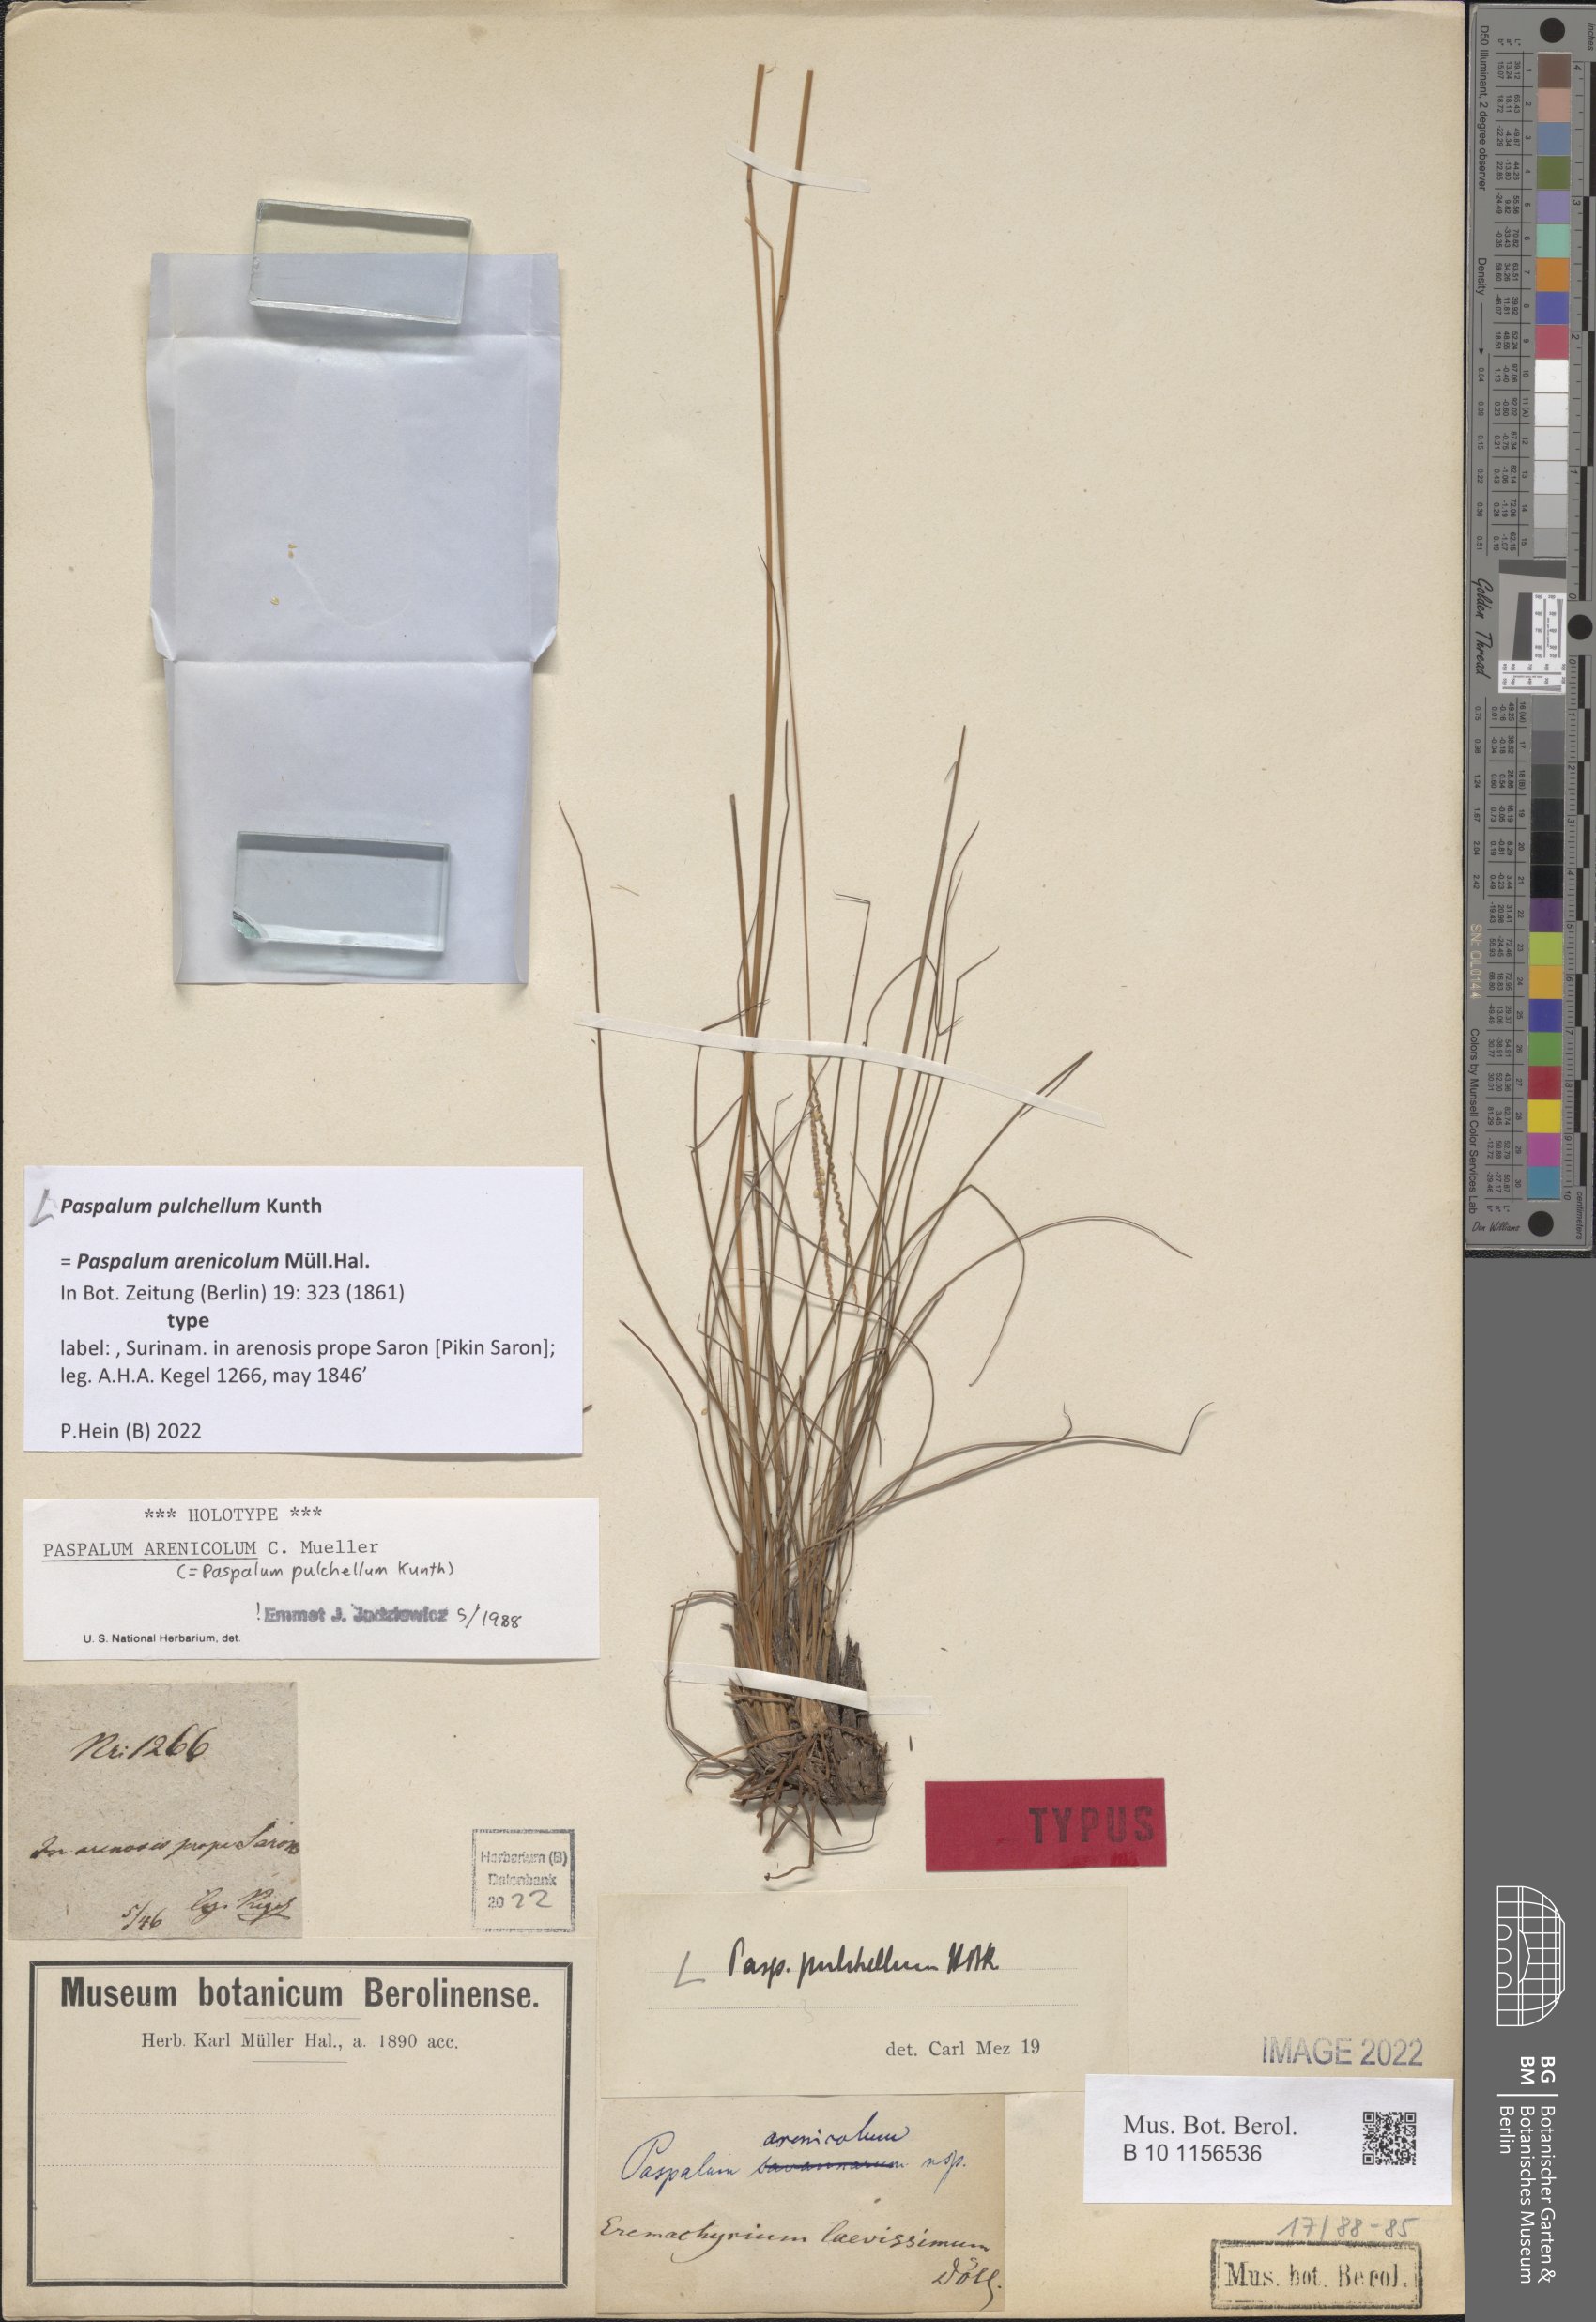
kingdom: Plantae
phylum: Tracheophyta
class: Liliopsida
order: Poales
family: Poaceae
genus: Paspalum
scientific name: Paspalum pulchellum
